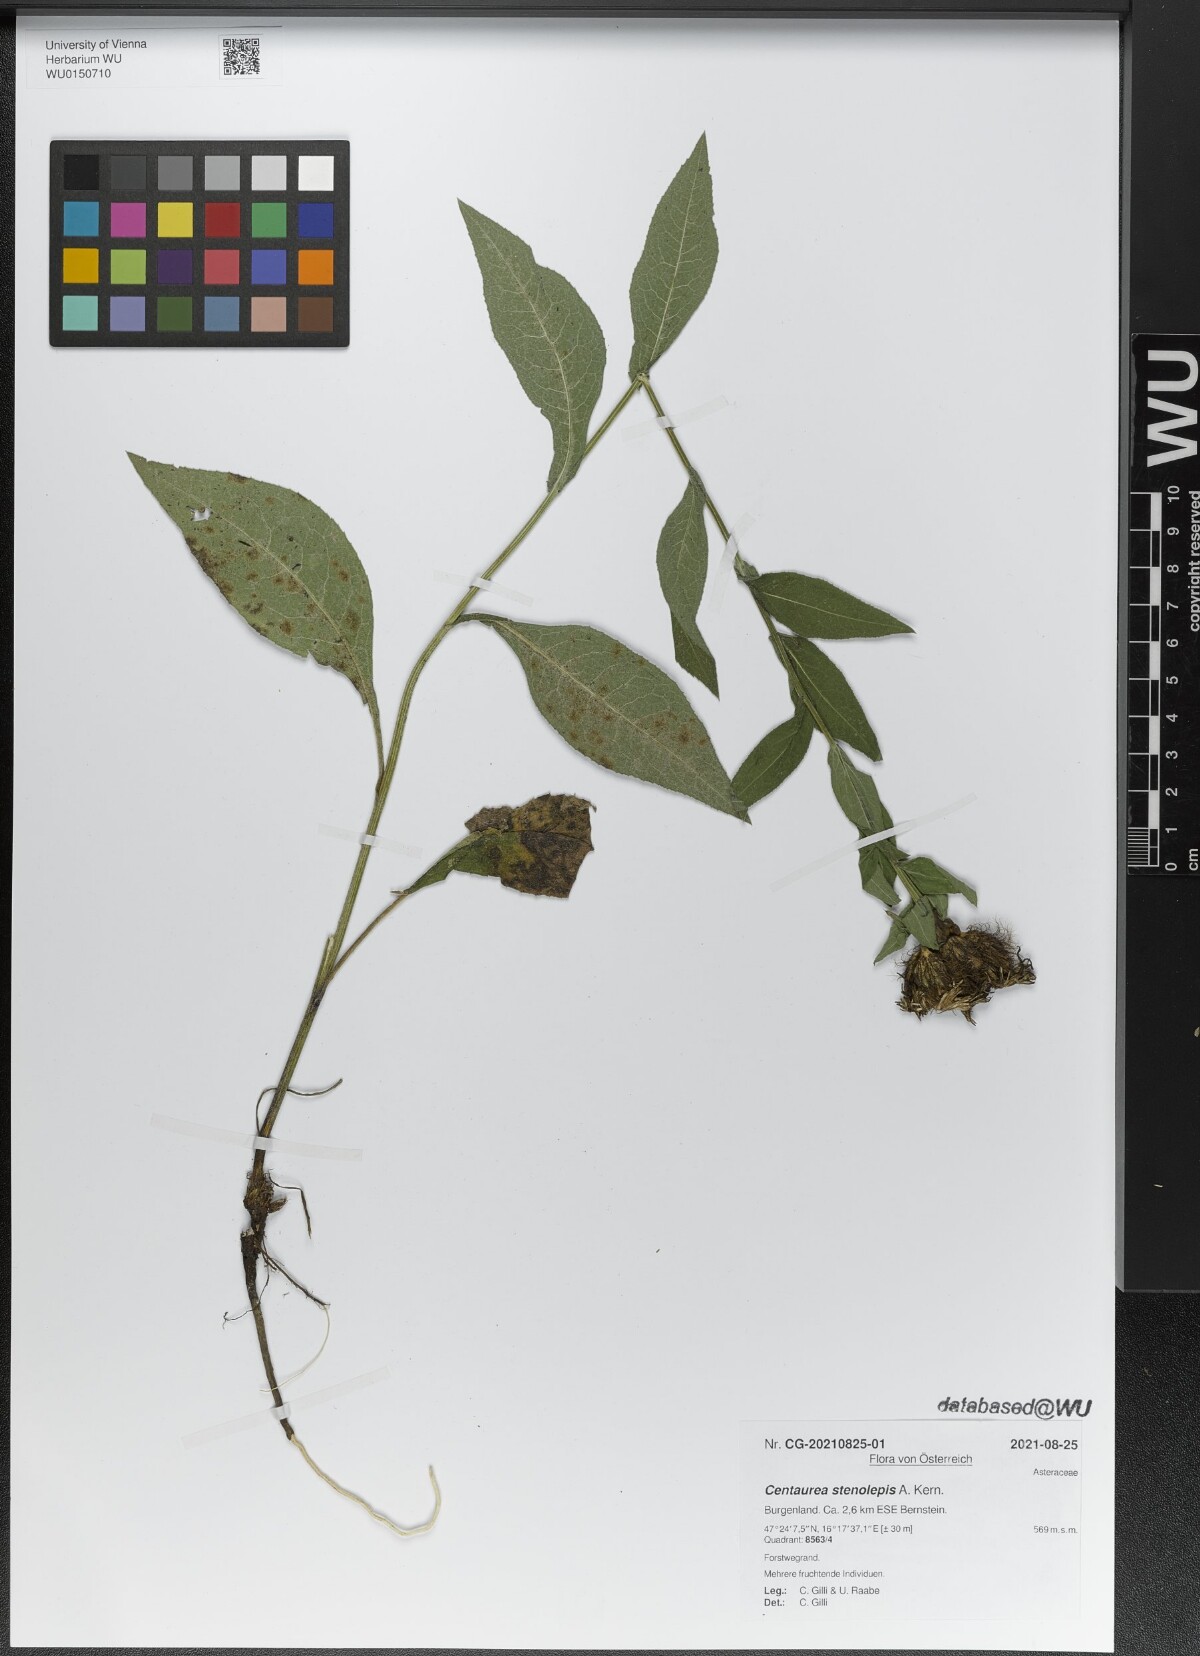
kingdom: Plantae
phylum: Tracheophyta
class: Magnoliopsida
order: Asterales
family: Asteraceae
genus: Centaurea
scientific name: Centaurea stenolepis
